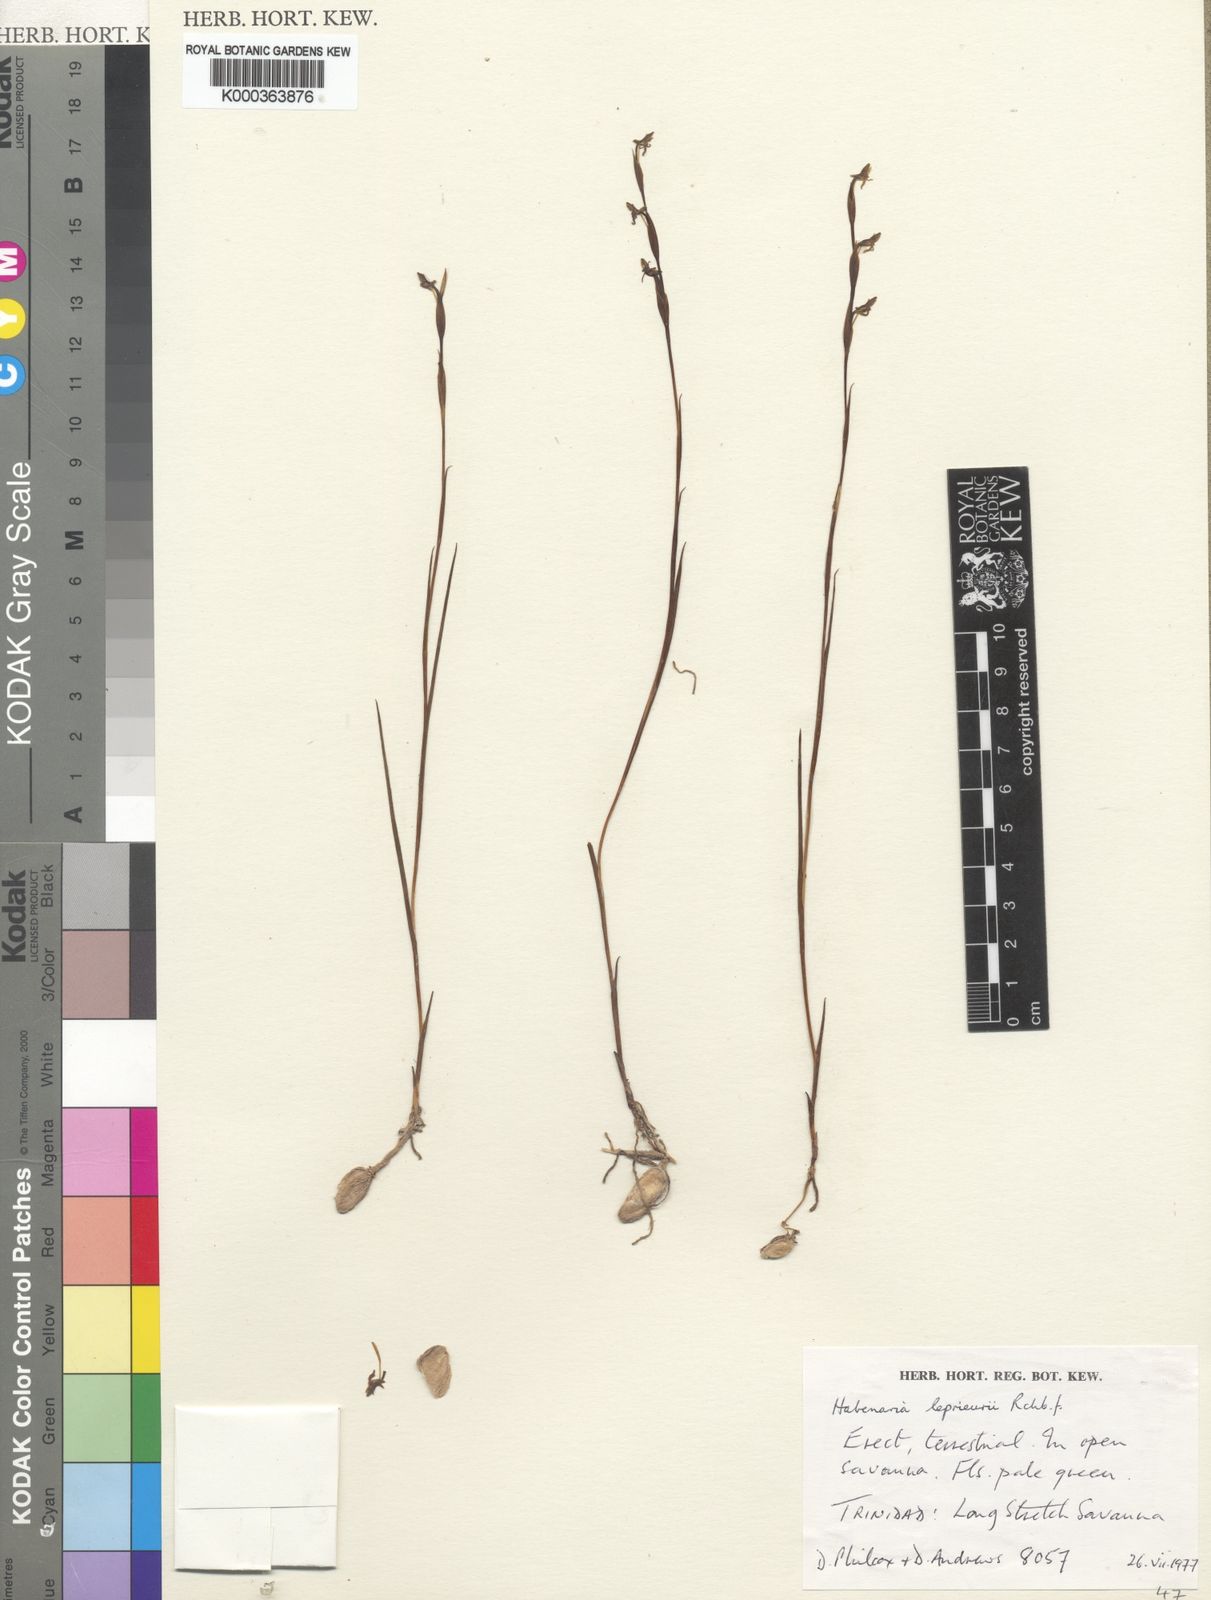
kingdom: Plantae
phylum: Tracheophyta
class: Liliopsida
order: Asparagales
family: Orchidaceae
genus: Habenaria
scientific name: Habenaria leprieurii
